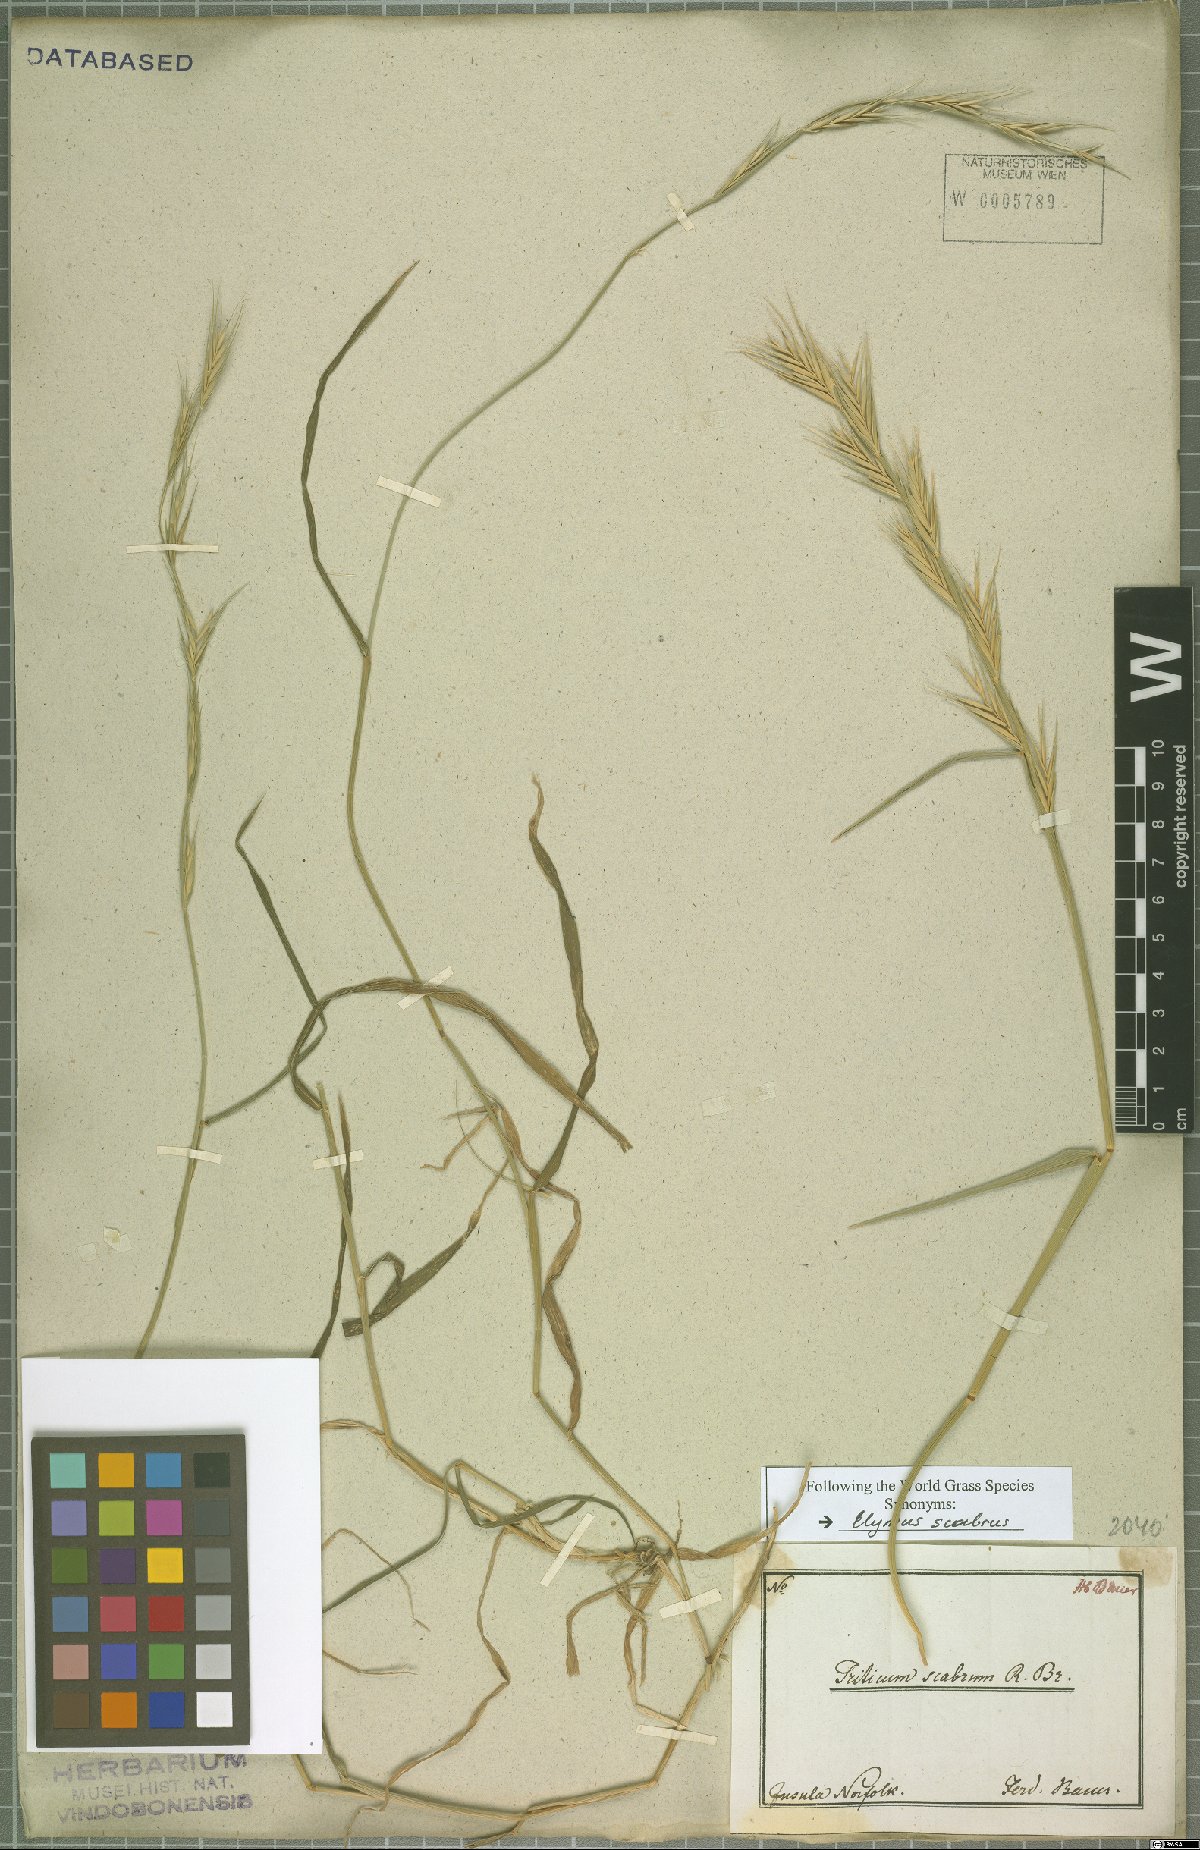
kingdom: Plantae
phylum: Tracheophyta
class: Liliopsida
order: Poales
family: Poaceae
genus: Anthosachne
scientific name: Anthosachne scabra
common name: Common wheatgrass
